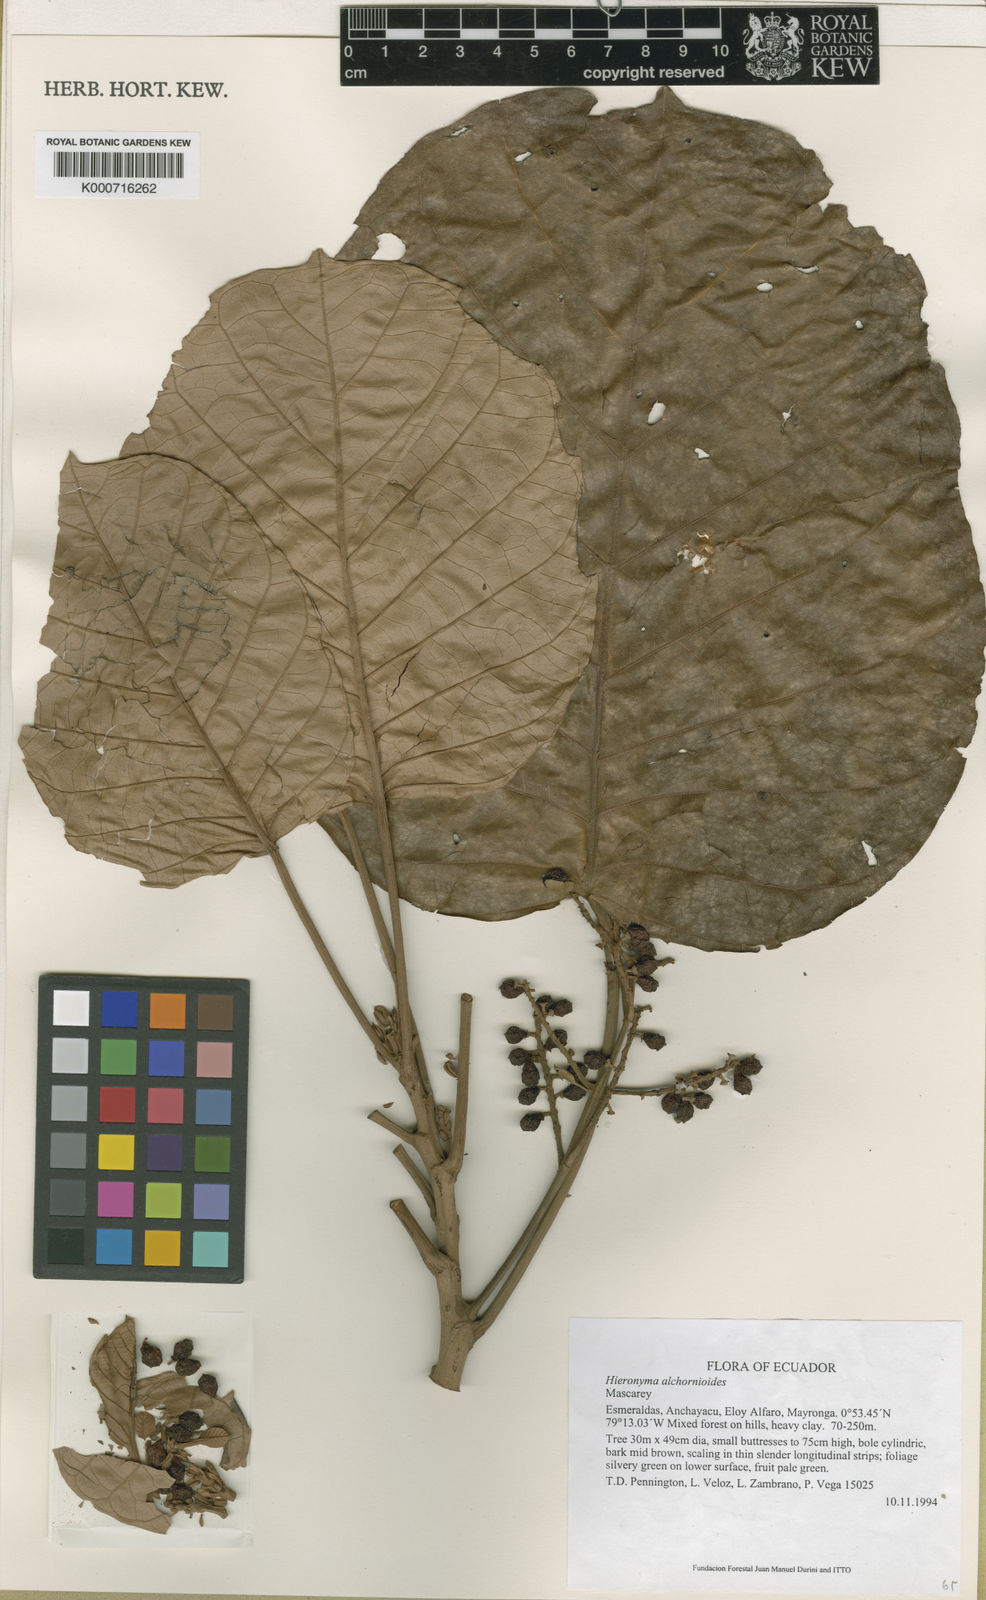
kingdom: Plantae
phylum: Tracheophyta
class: Magnoliopsida
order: Malpighiales
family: Phyllanthaceae
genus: Hieronyma
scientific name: Hieronyma
